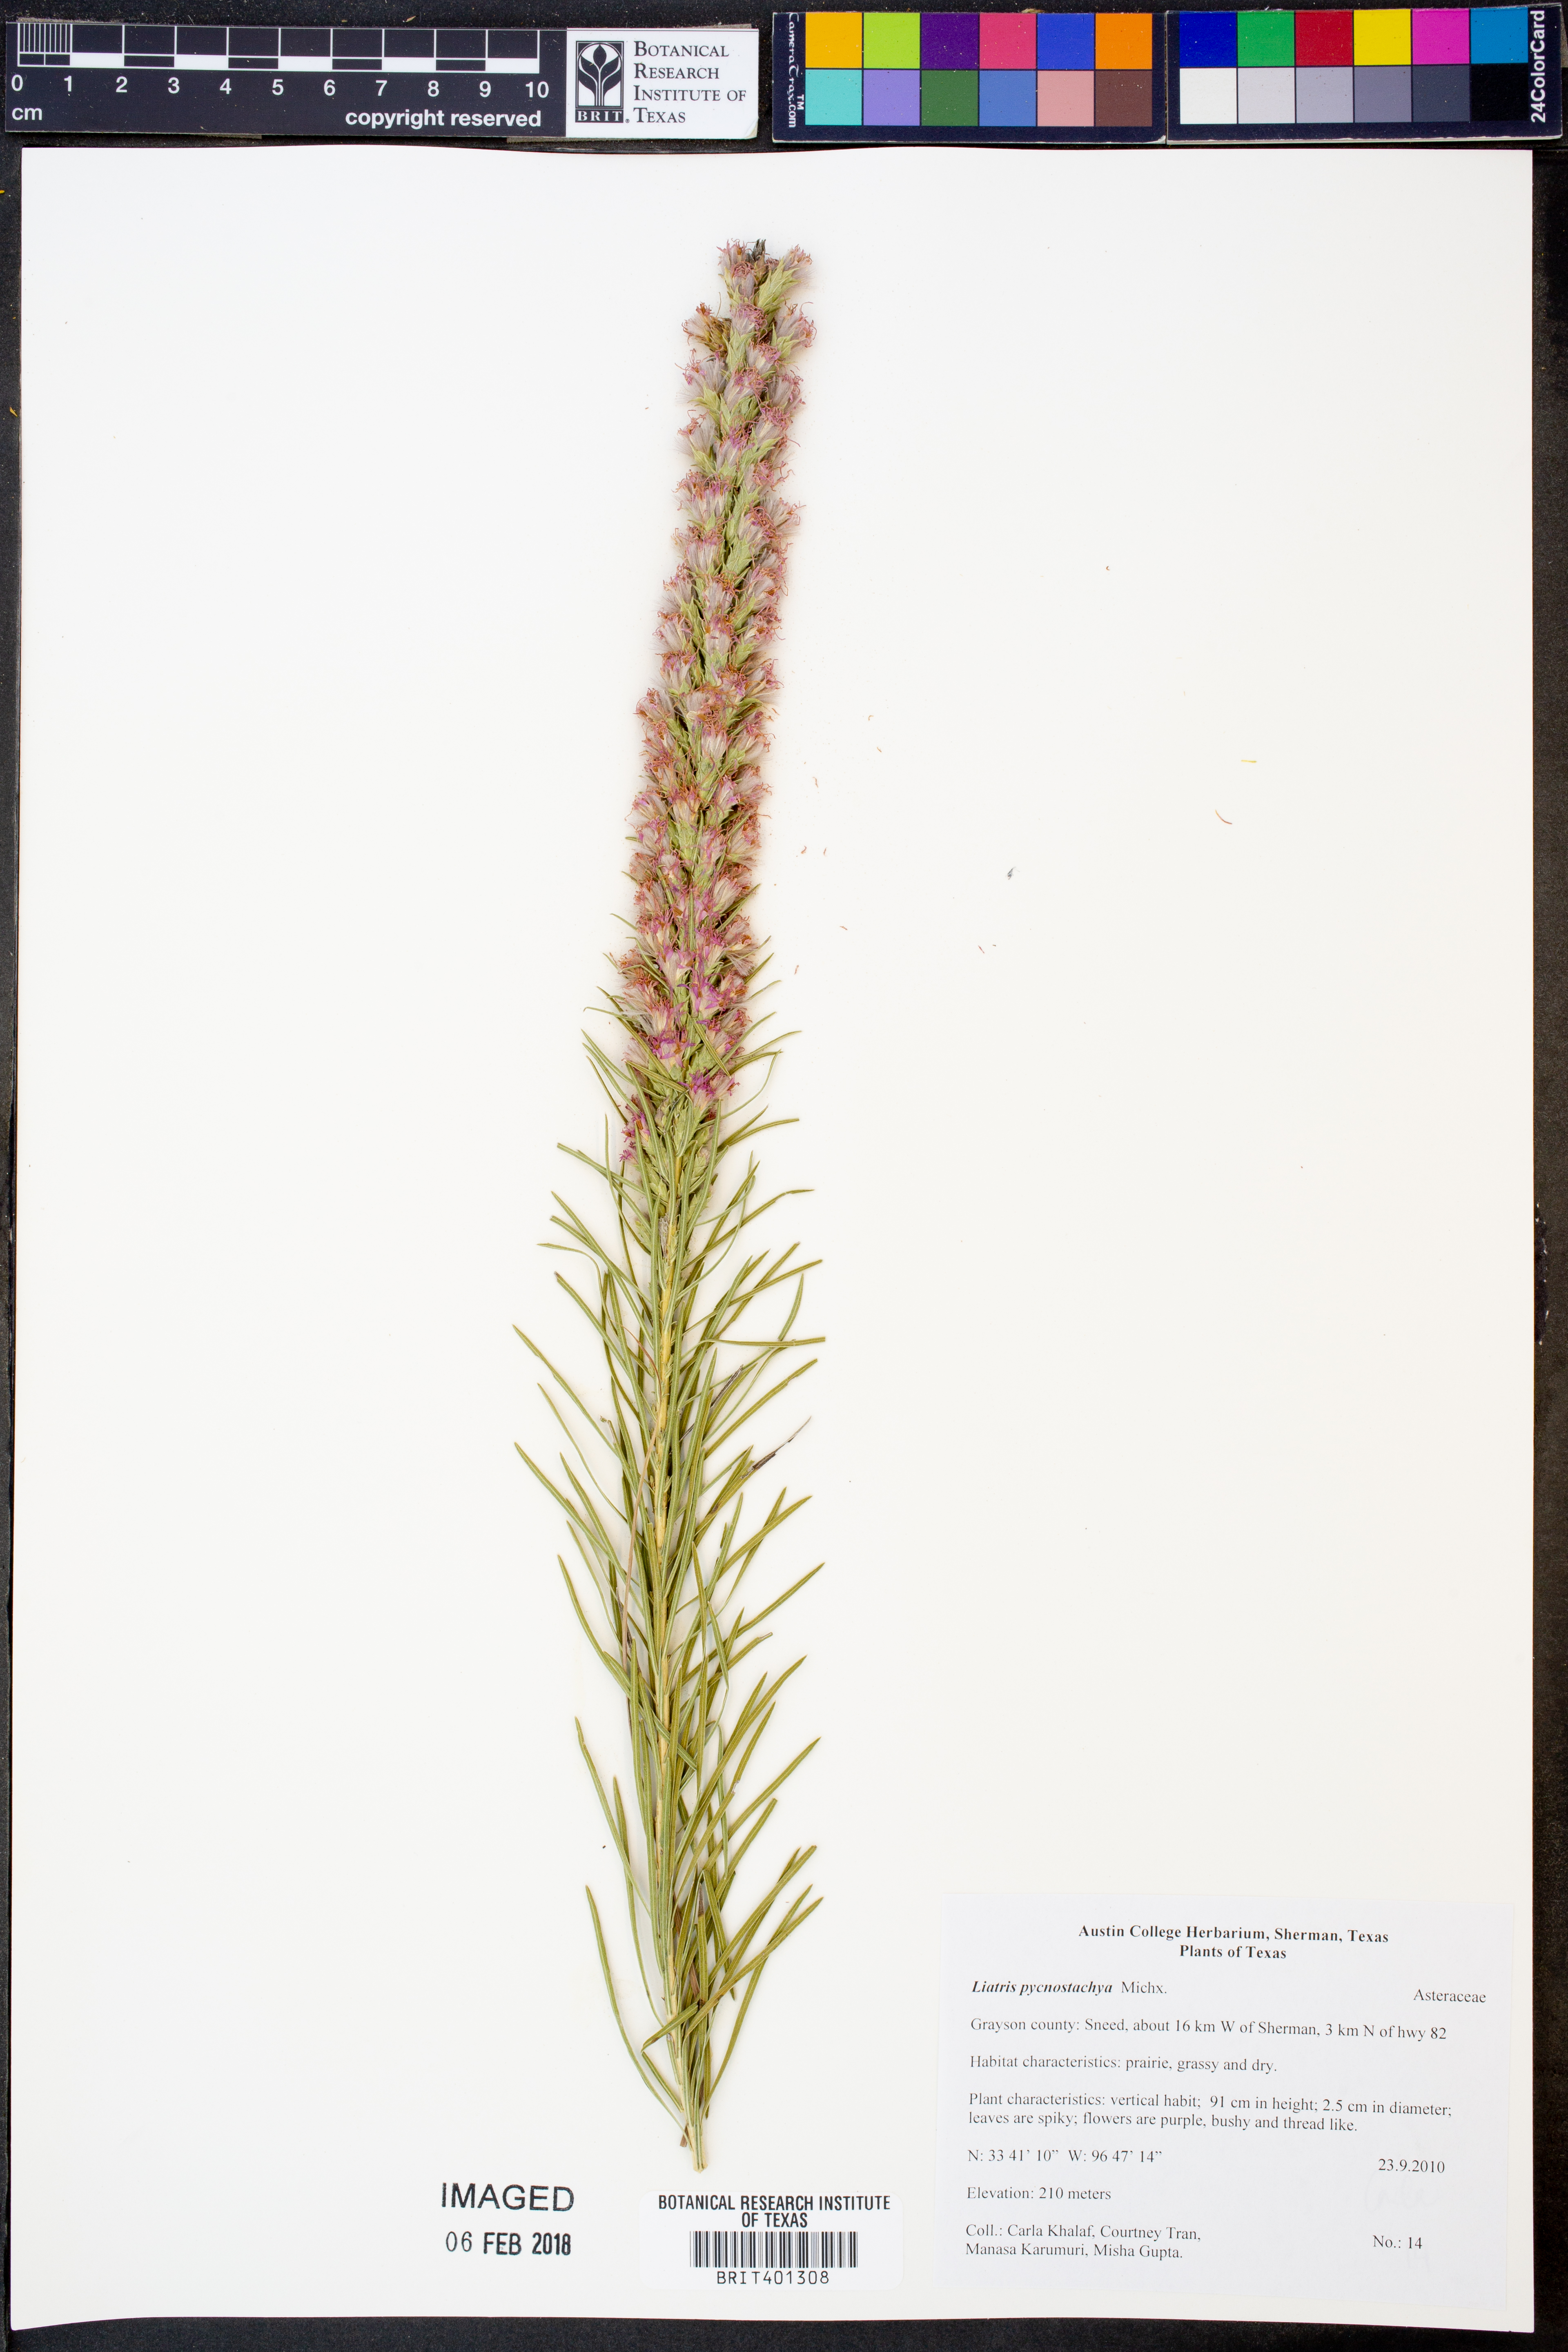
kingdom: Plantae
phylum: Tracheophyta
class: Magnoliopsida
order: Asterales
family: Asteraceae
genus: Liatris
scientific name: Liatris pycnostachya
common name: Cattail gayfeather
